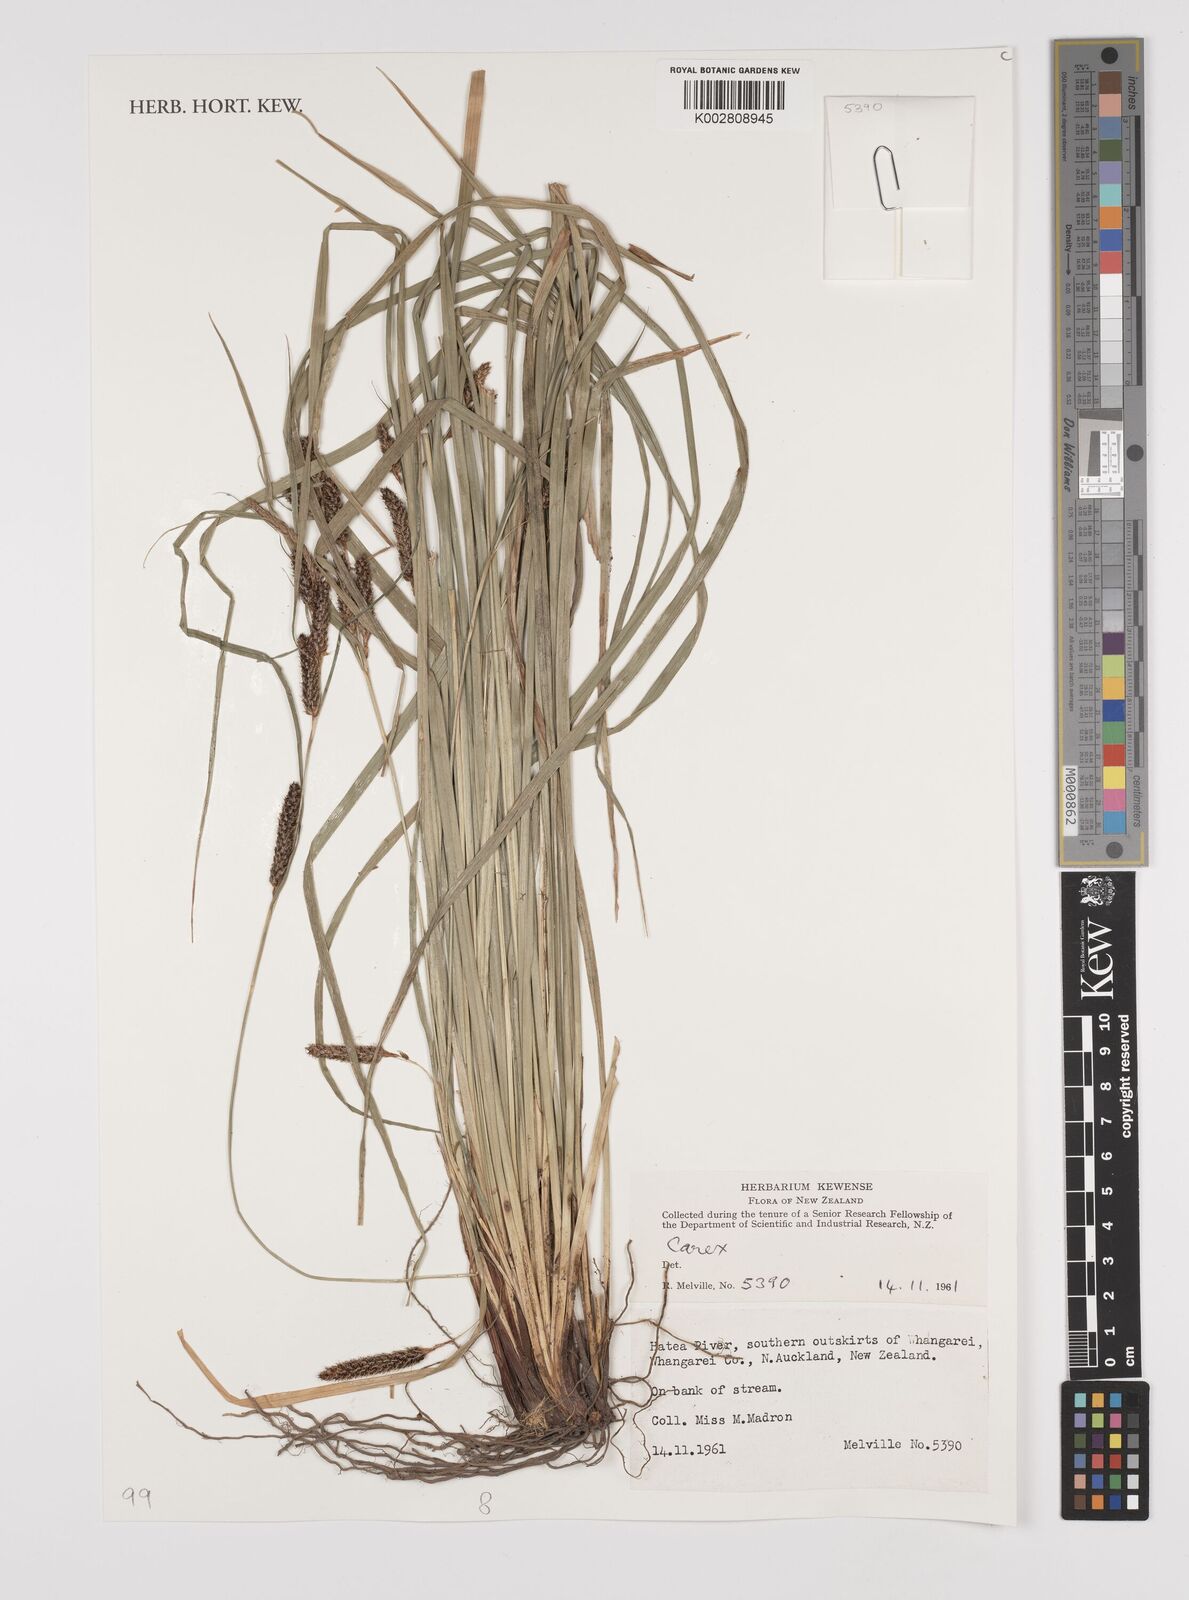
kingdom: Plantae
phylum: Tracheophyta
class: Liliopsida
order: Poales
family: Cyperaceae
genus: Carex
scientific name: Carex
